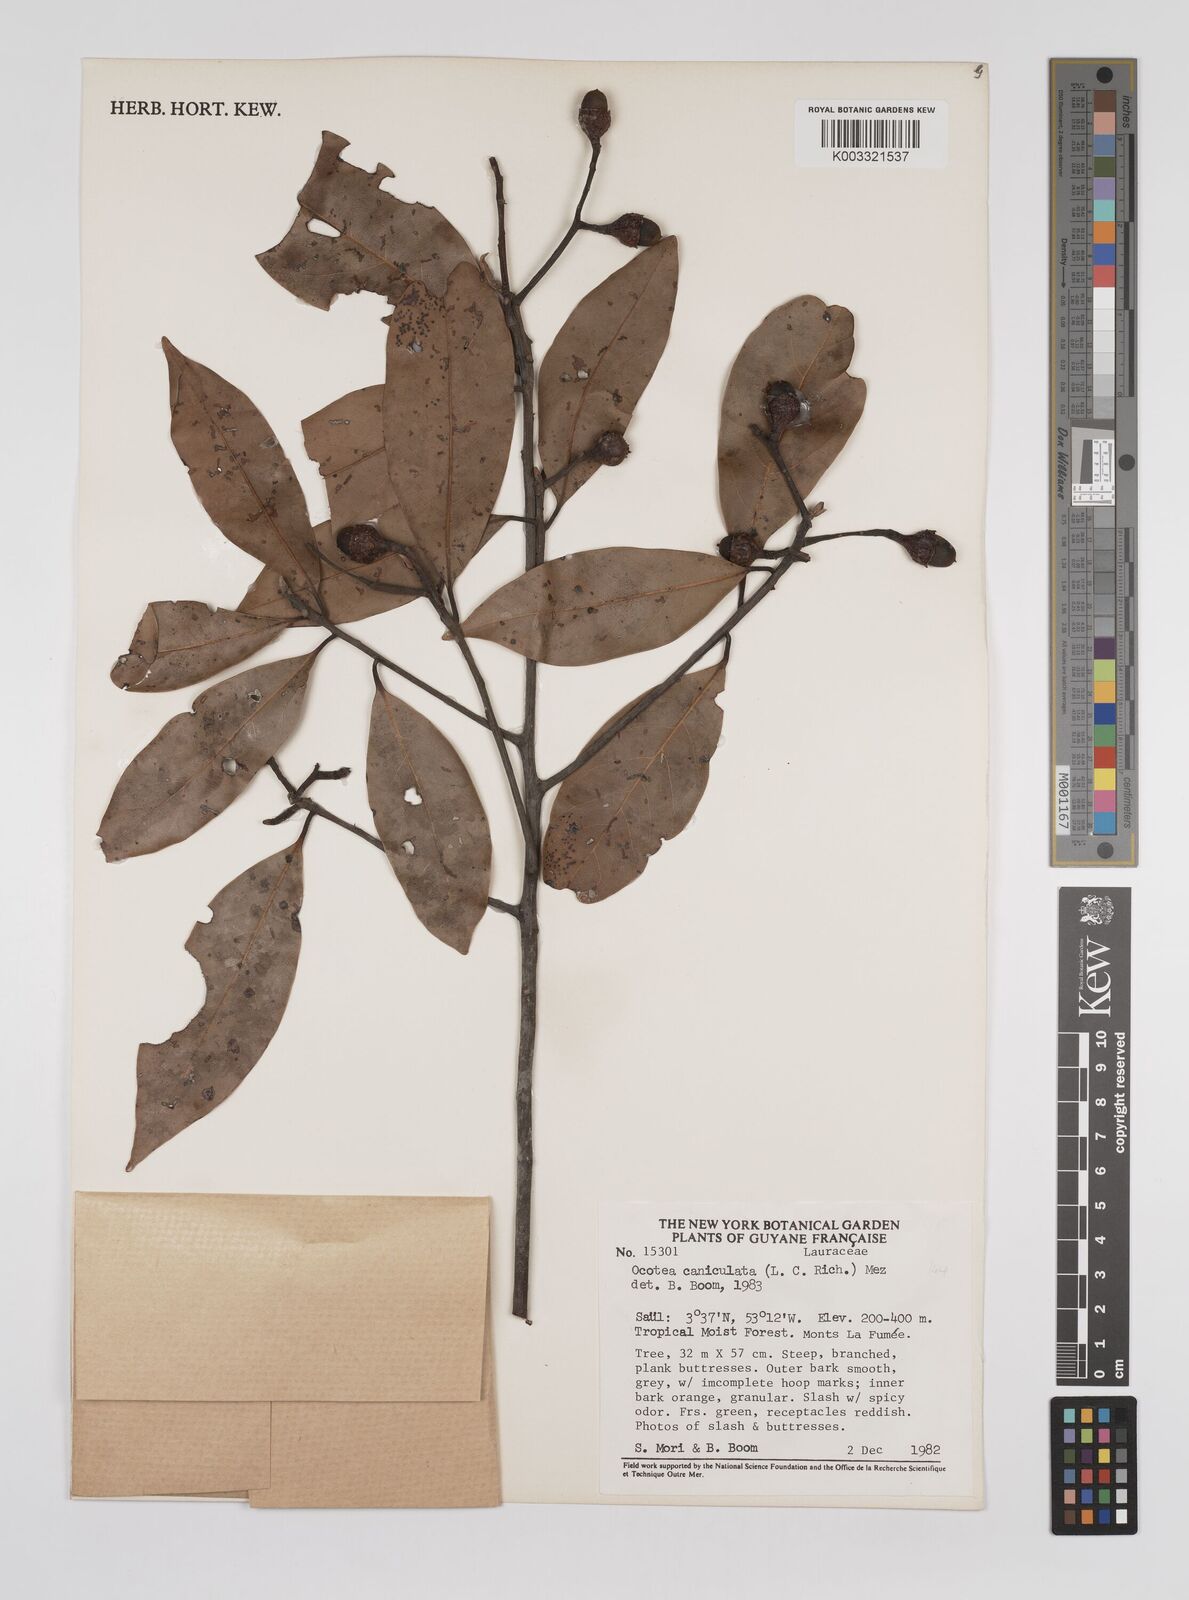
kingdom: Plantae
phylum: Tracheophyta
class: Magnoliopsida
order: Laurales
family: Lauraceae
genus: Ocotea
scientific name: Ocotea canaliculata
